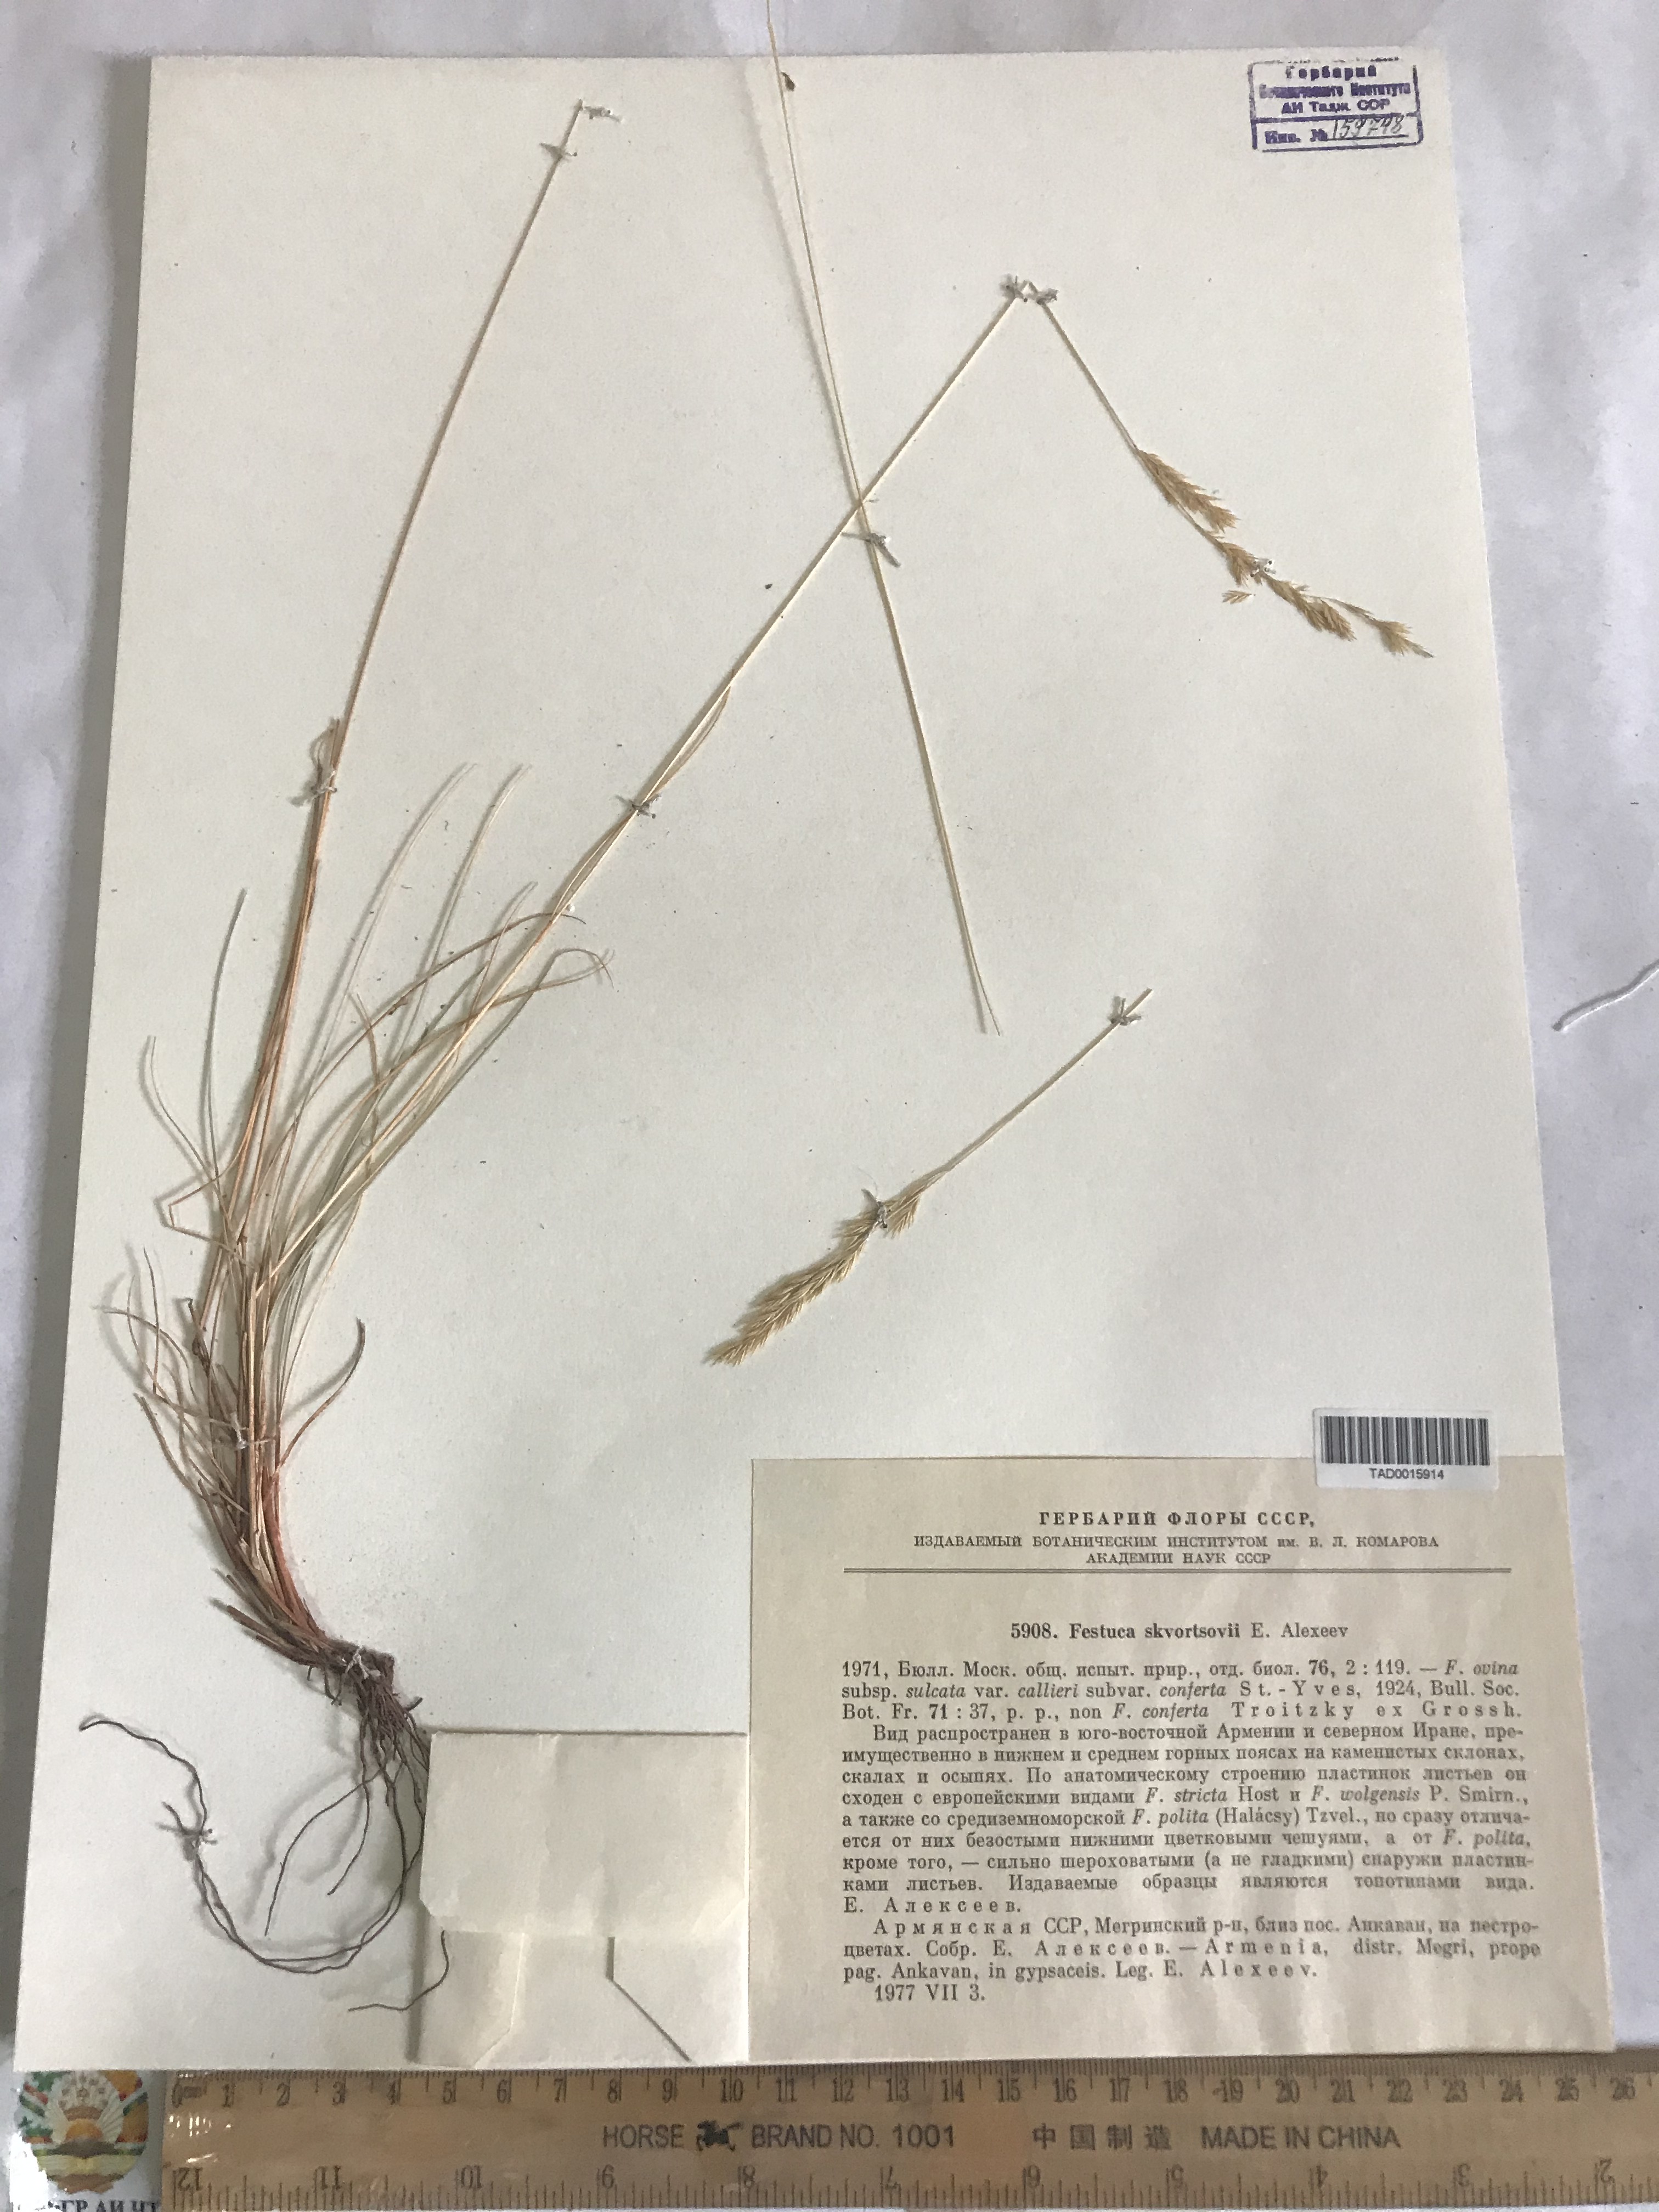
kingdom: Plantae
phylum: Tracheophyta
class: Liliopsida
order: Poales
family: Poaceae
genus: Festuca
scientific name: Festuca skvortsovii
